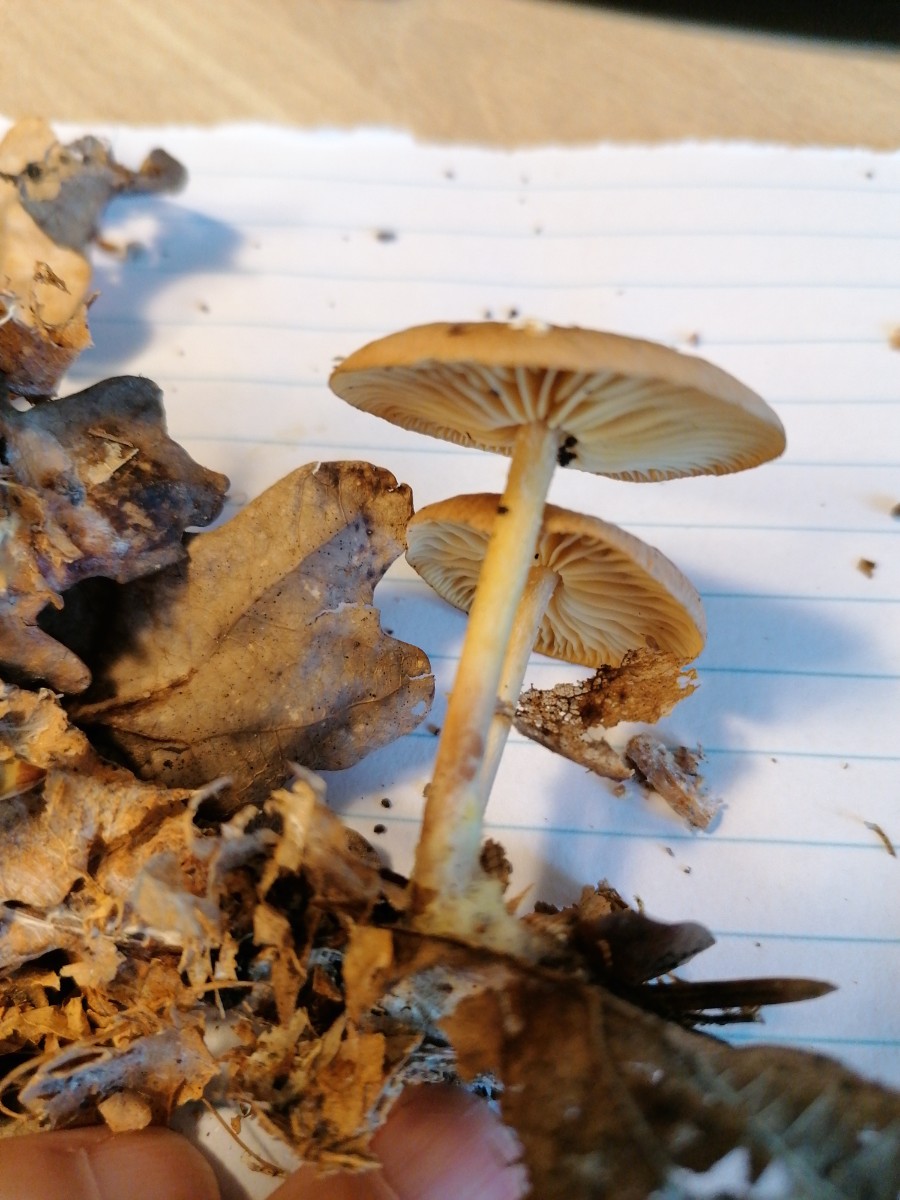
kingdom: Fungi
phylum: Basidiomycota
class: Agaricomycetes
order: Agaricales
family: Omphalotaceae
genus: Collybiopsis
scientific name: Collybiopsis peronata
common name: bestøvlet fladhat
